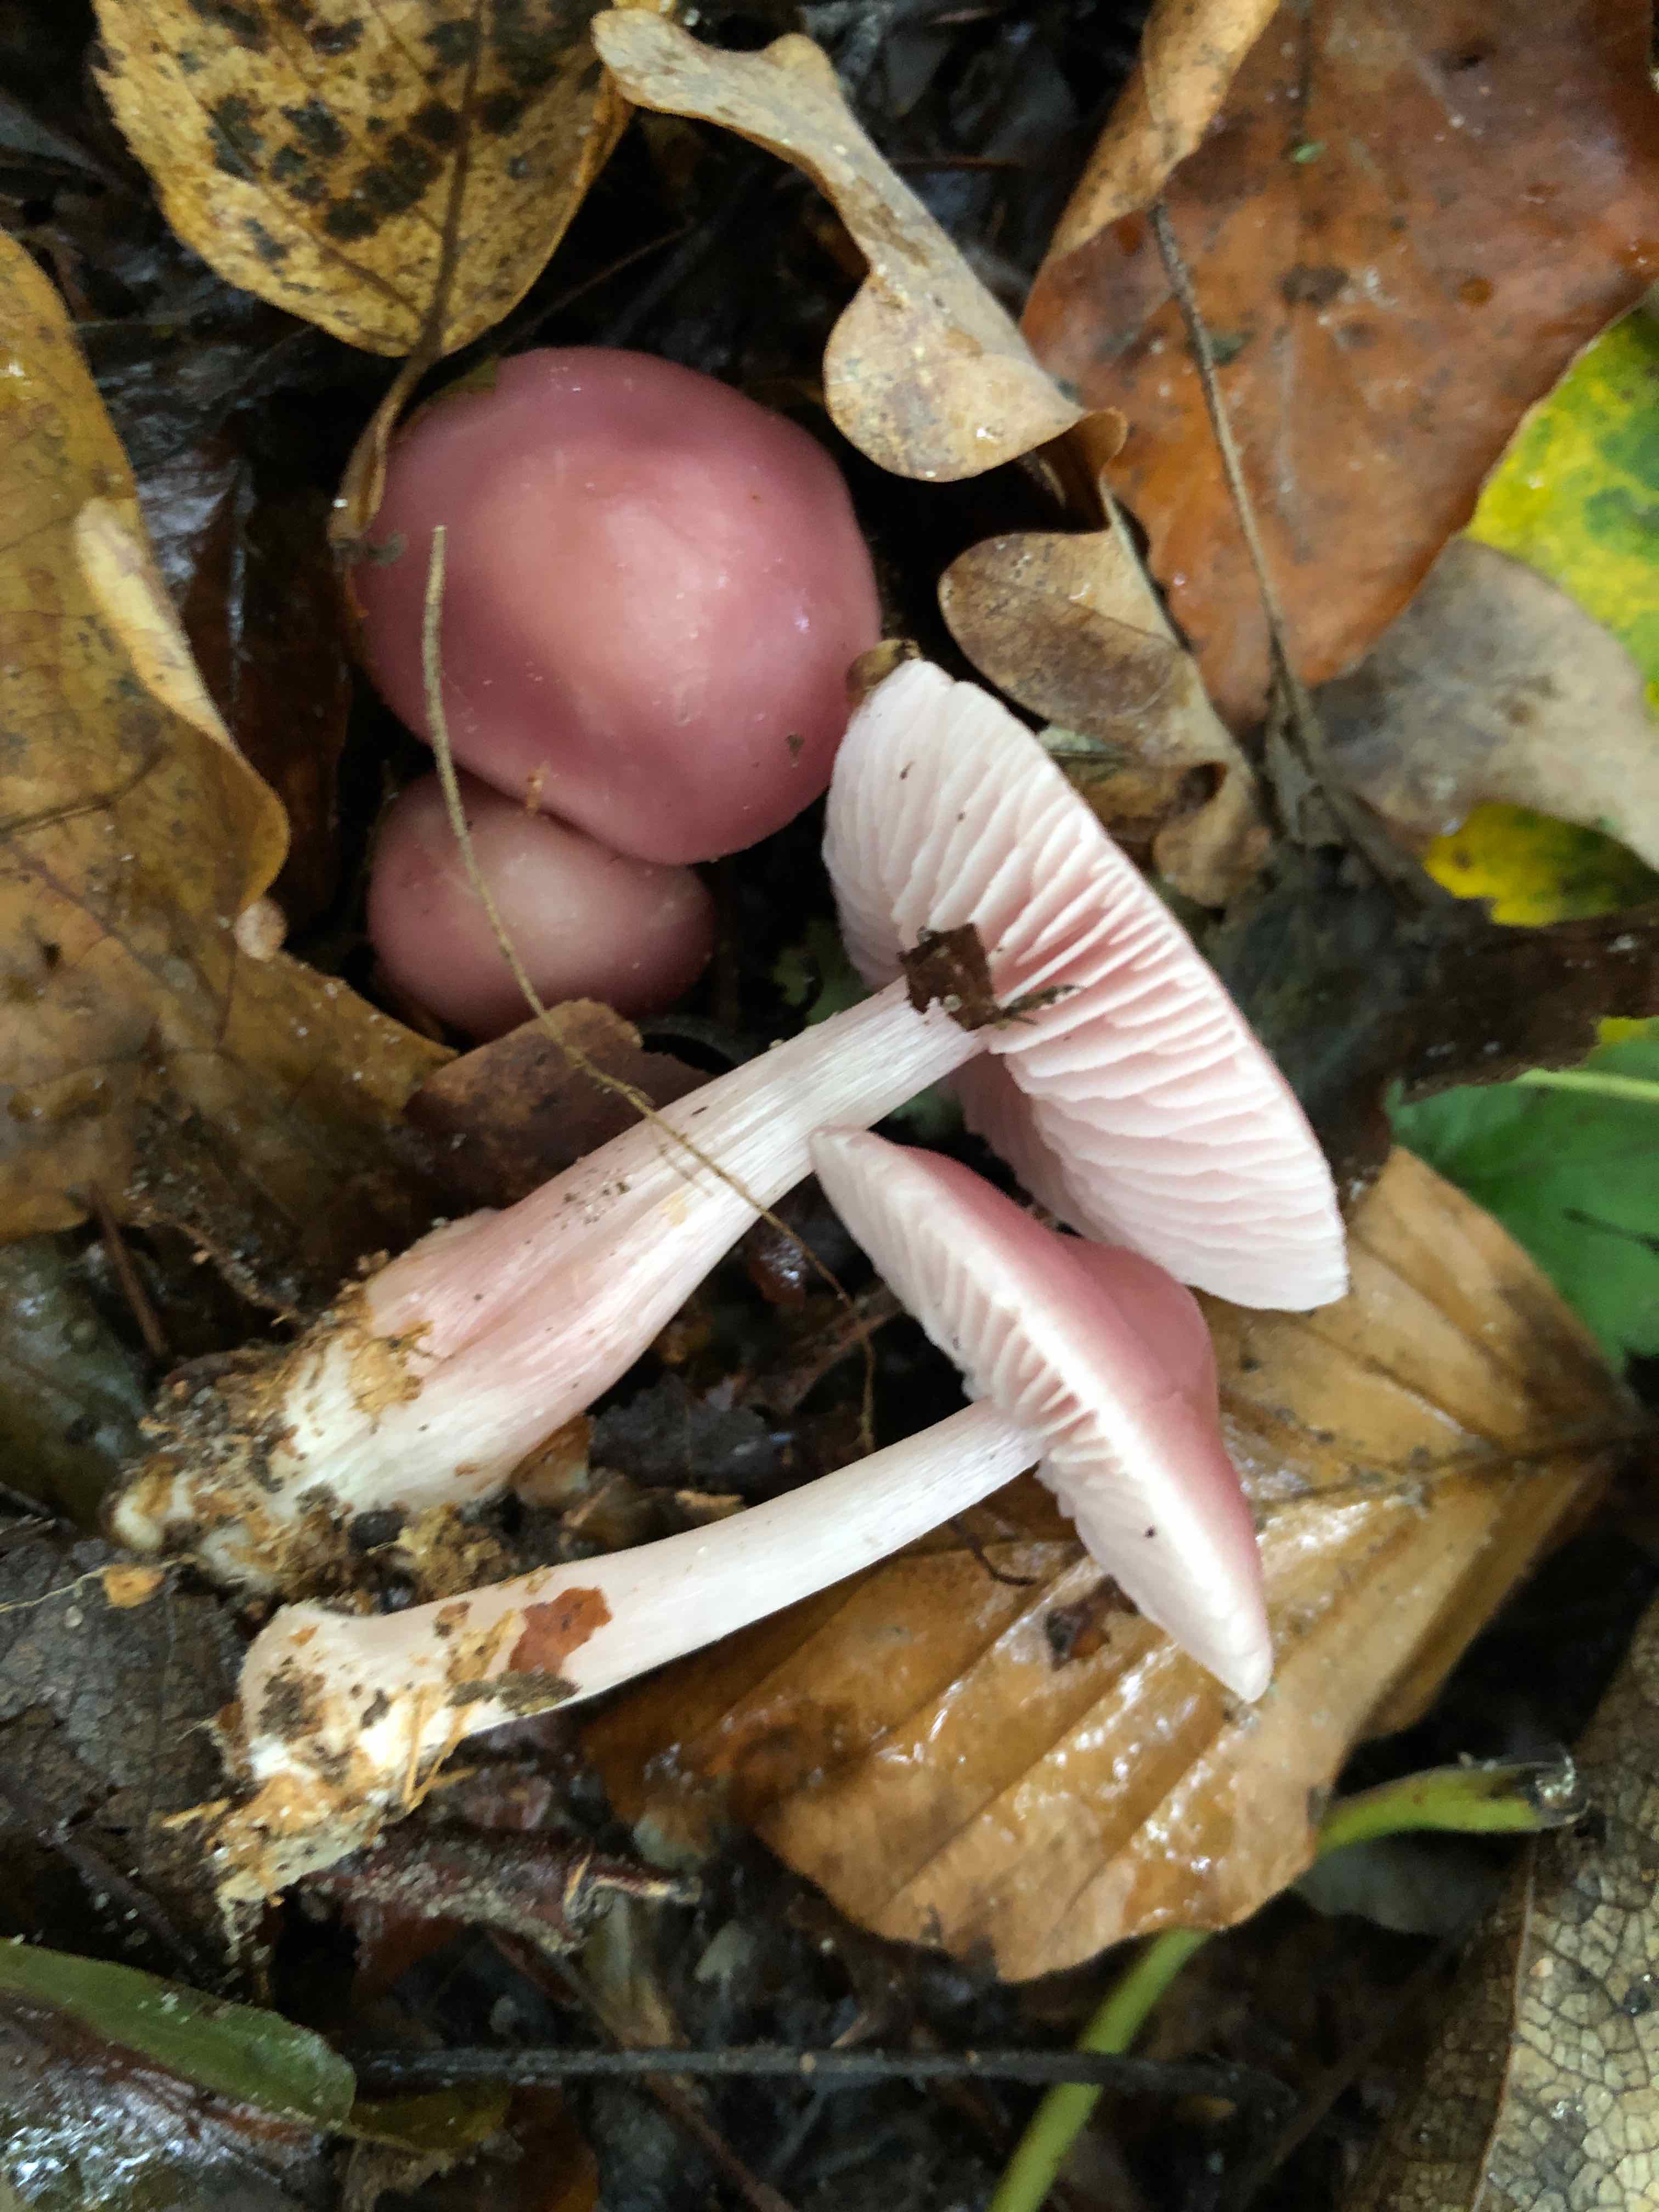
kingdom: Fungi
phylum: Basidiomycota
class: Agaricomycetes
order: Agaricales
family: Mycenaceae
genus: Mycena
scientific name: Mycena rosea
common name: rosa huesvamp
